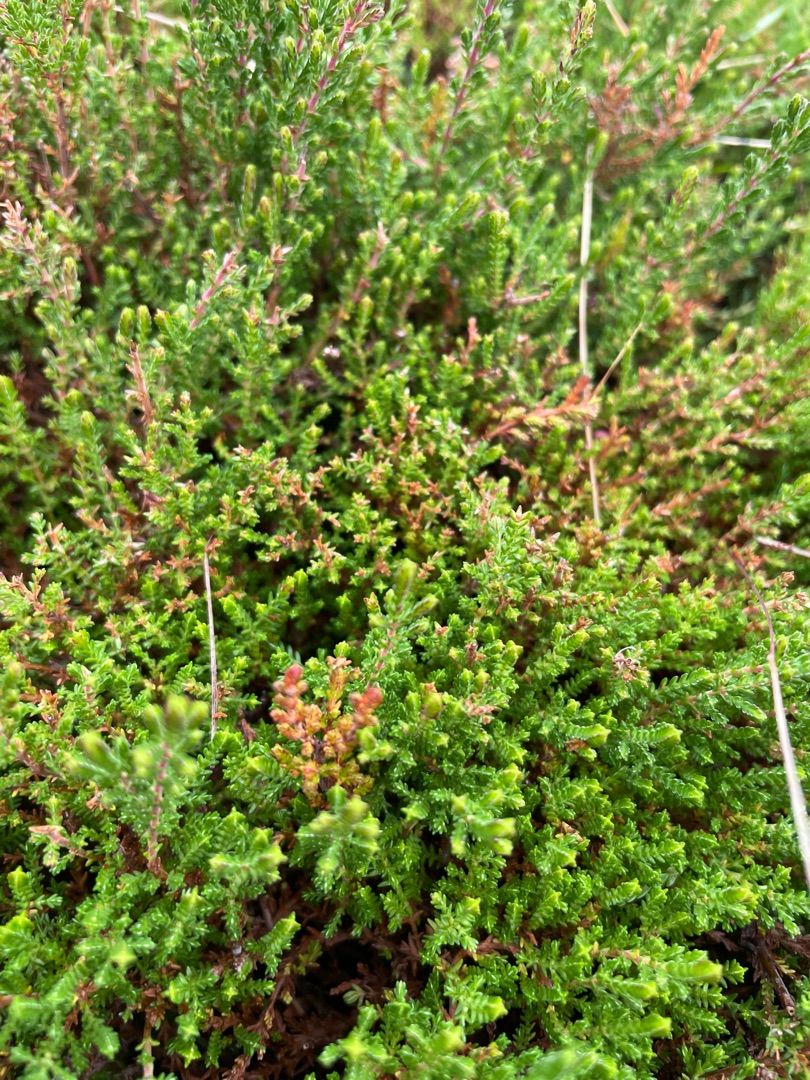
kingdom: Plantae
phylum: Tracheophyta
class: Magnoliopsida
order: Ericales
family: Ericaceae
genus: Calluna
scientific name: Calluna vulgaris
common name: Hedelyng
